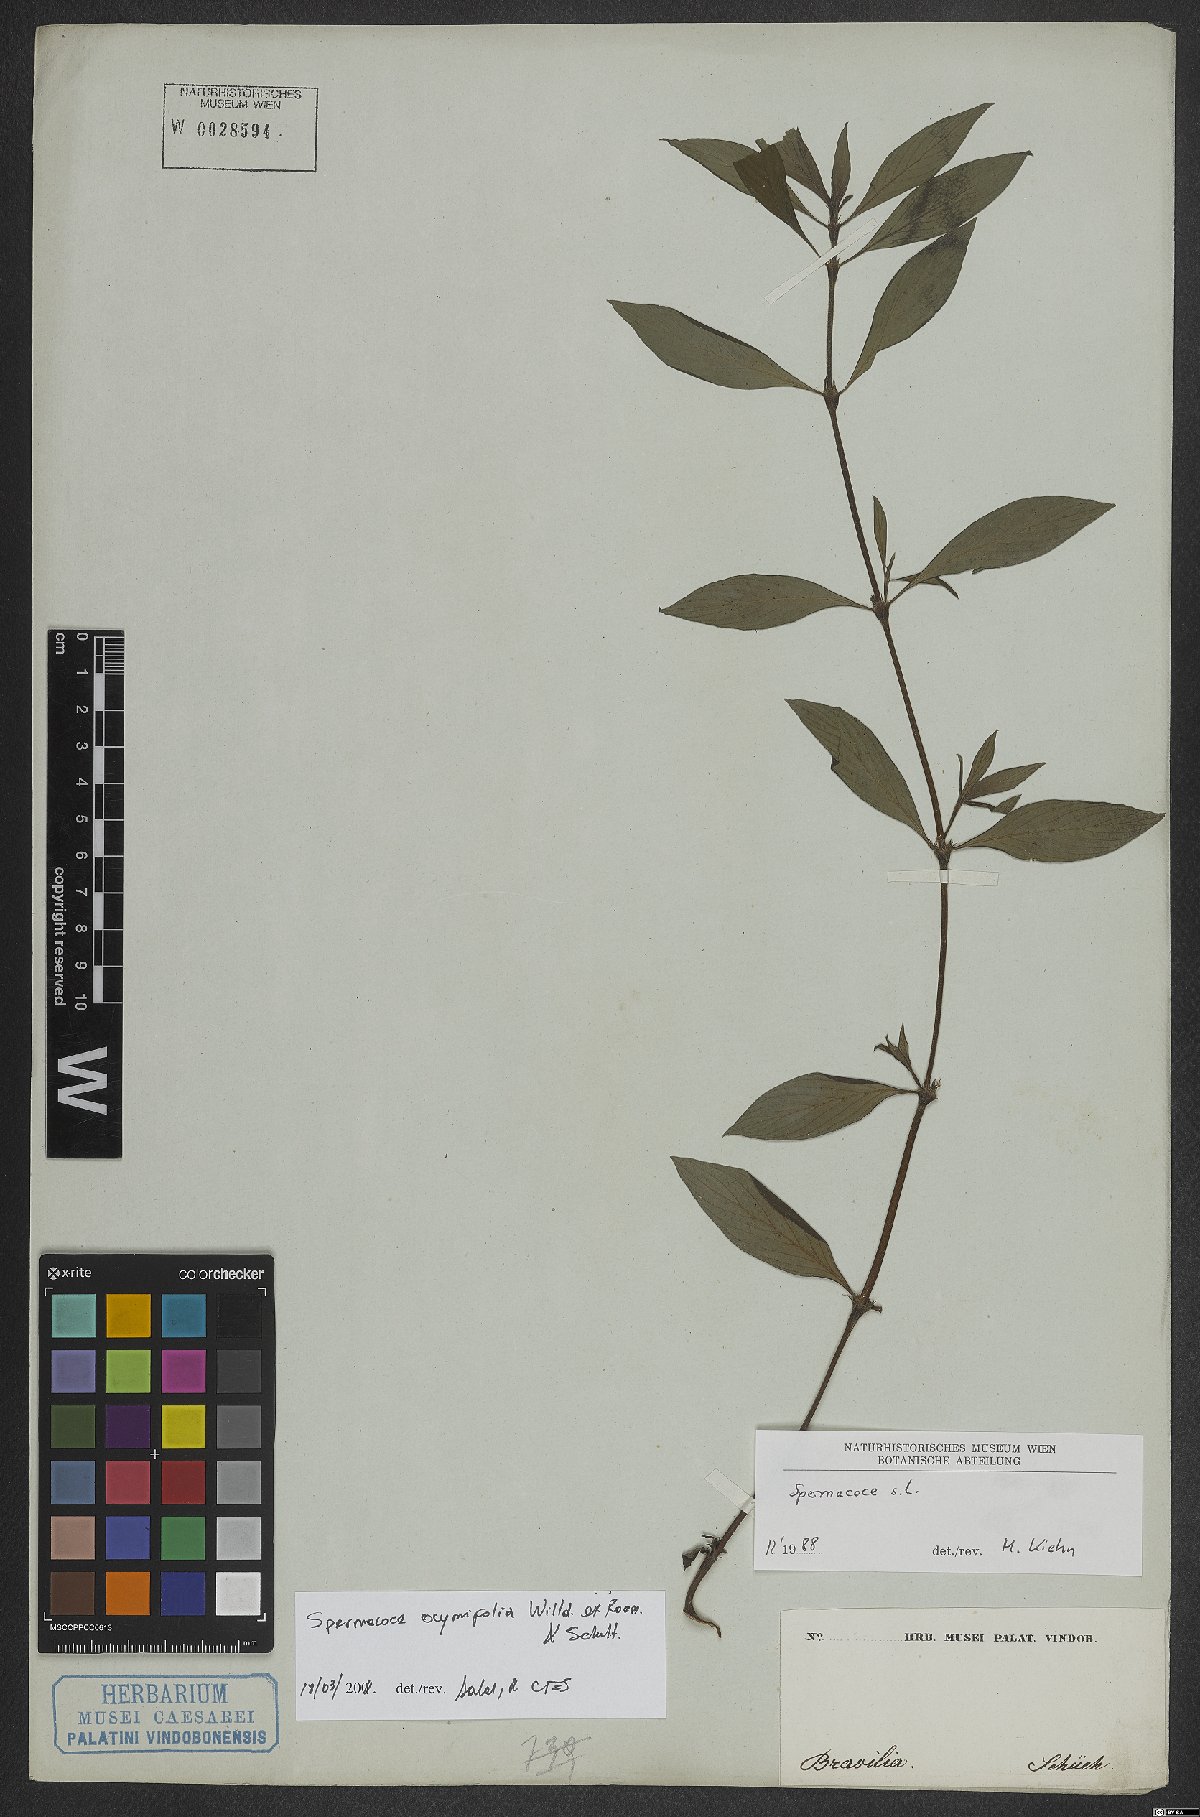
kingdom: Plantae
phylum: Tracheophyta
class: Magnoliopsida
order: Gentianales
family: Rubiaceae
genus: Spermacoce
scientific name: Spermacoce ocymifolia
